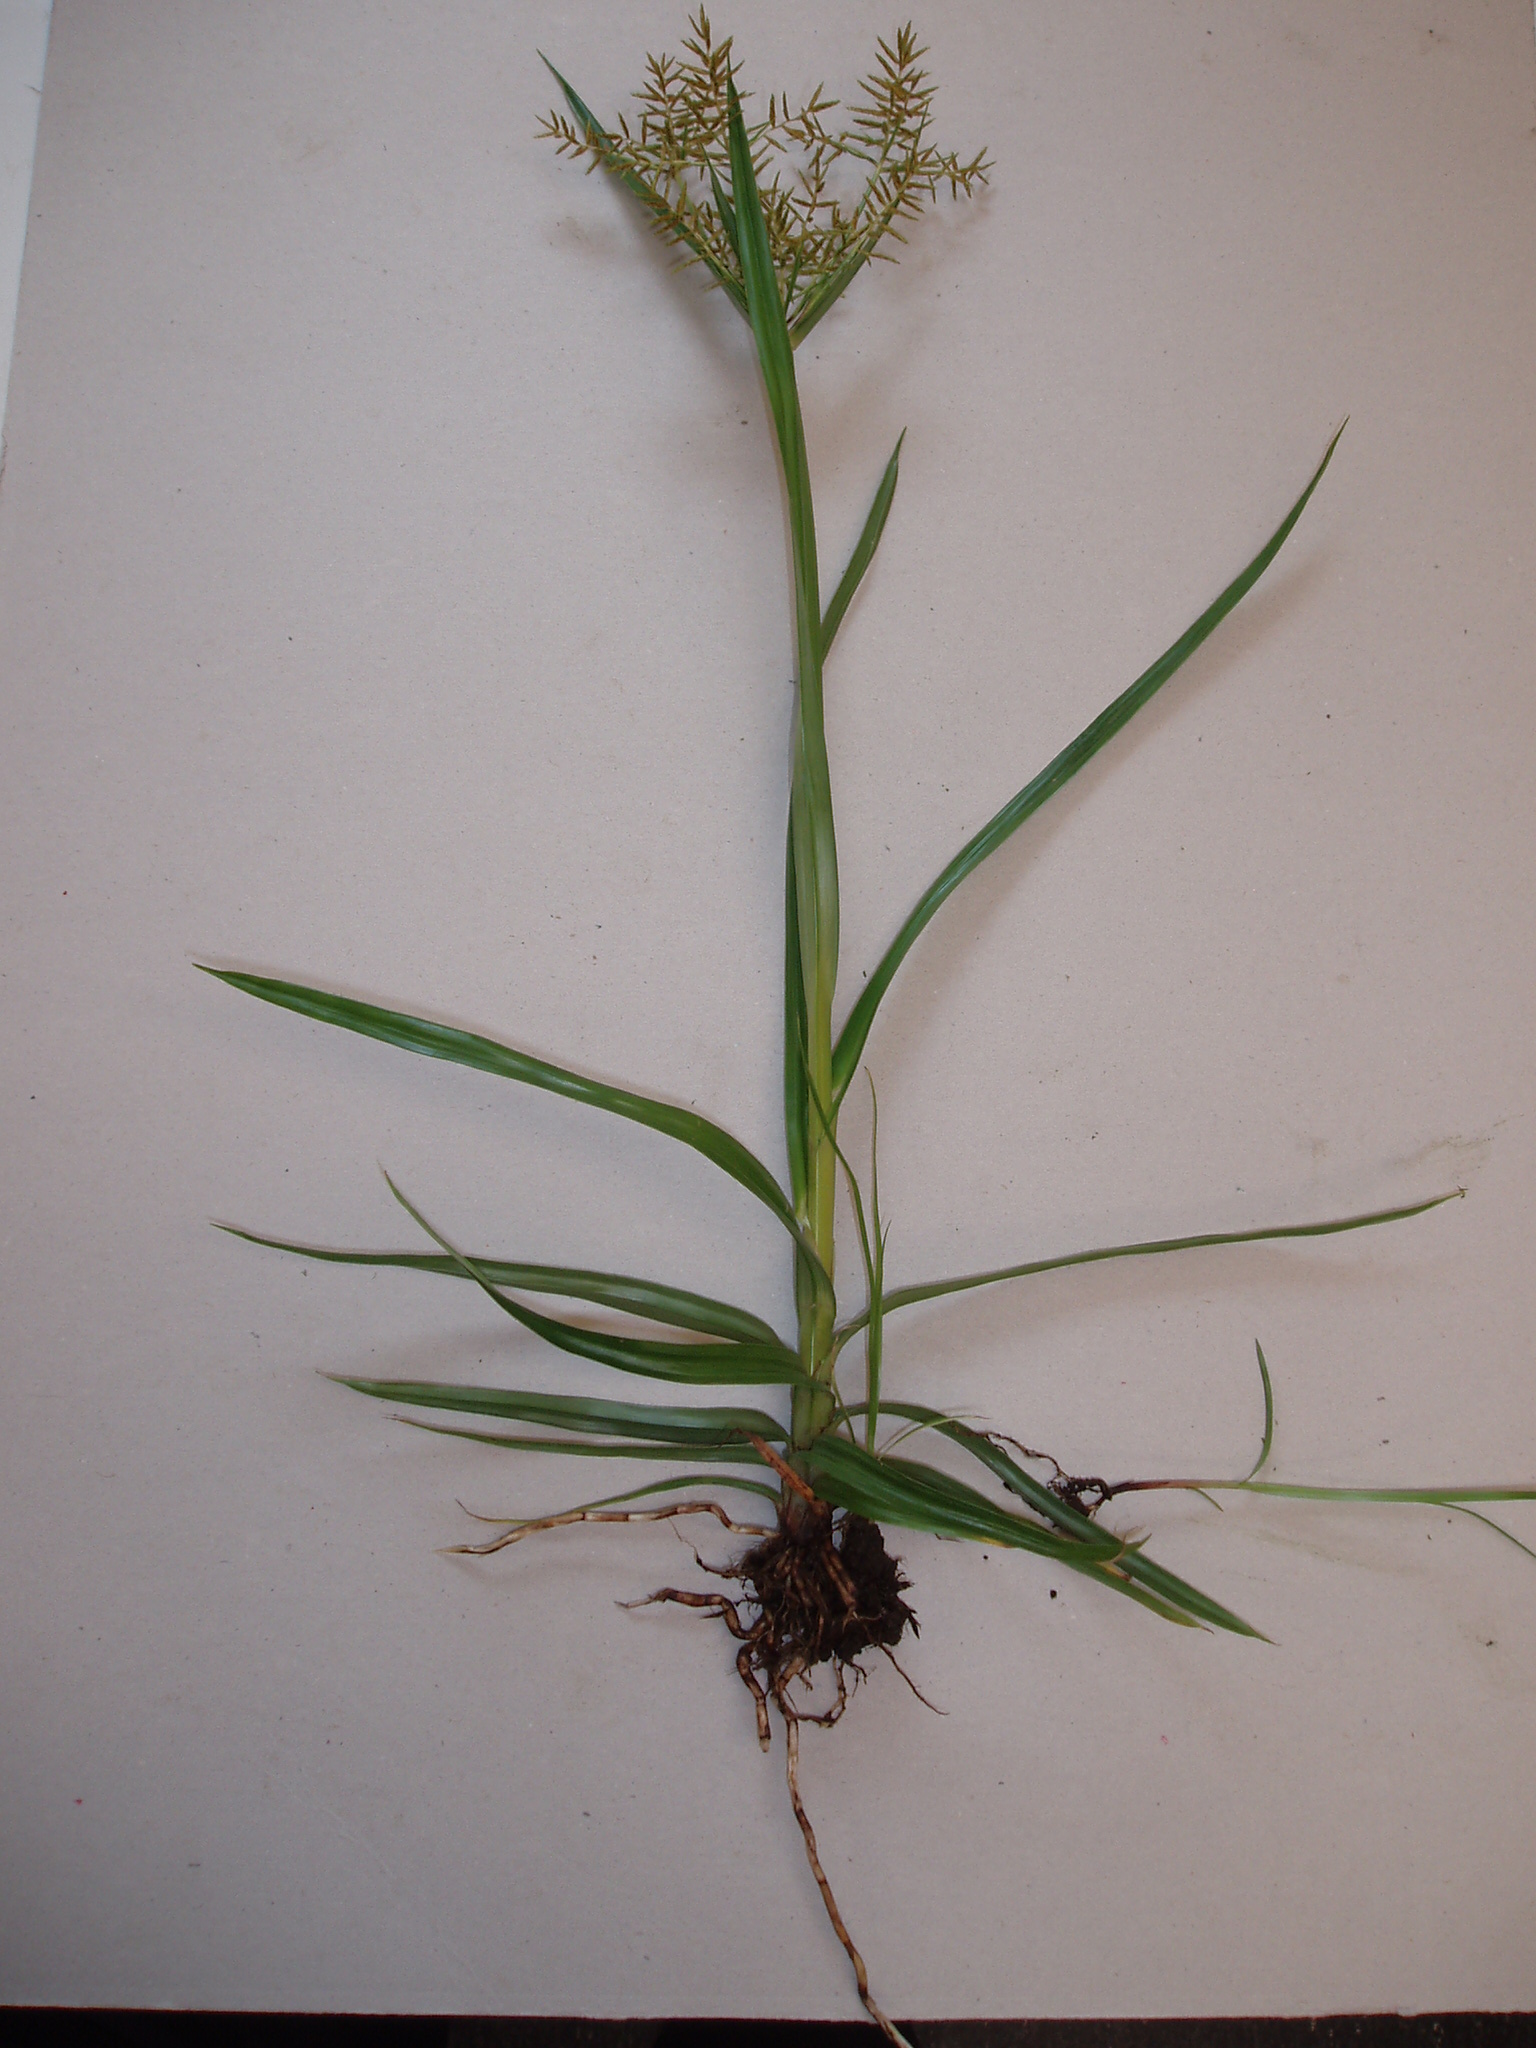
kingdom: Plantae
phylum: Tracheophyta
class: Liliopsida
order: Poales
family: Cyperaceae
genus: Cyperus
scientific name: Cyperus esculentus
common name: Yellow nutsedge
